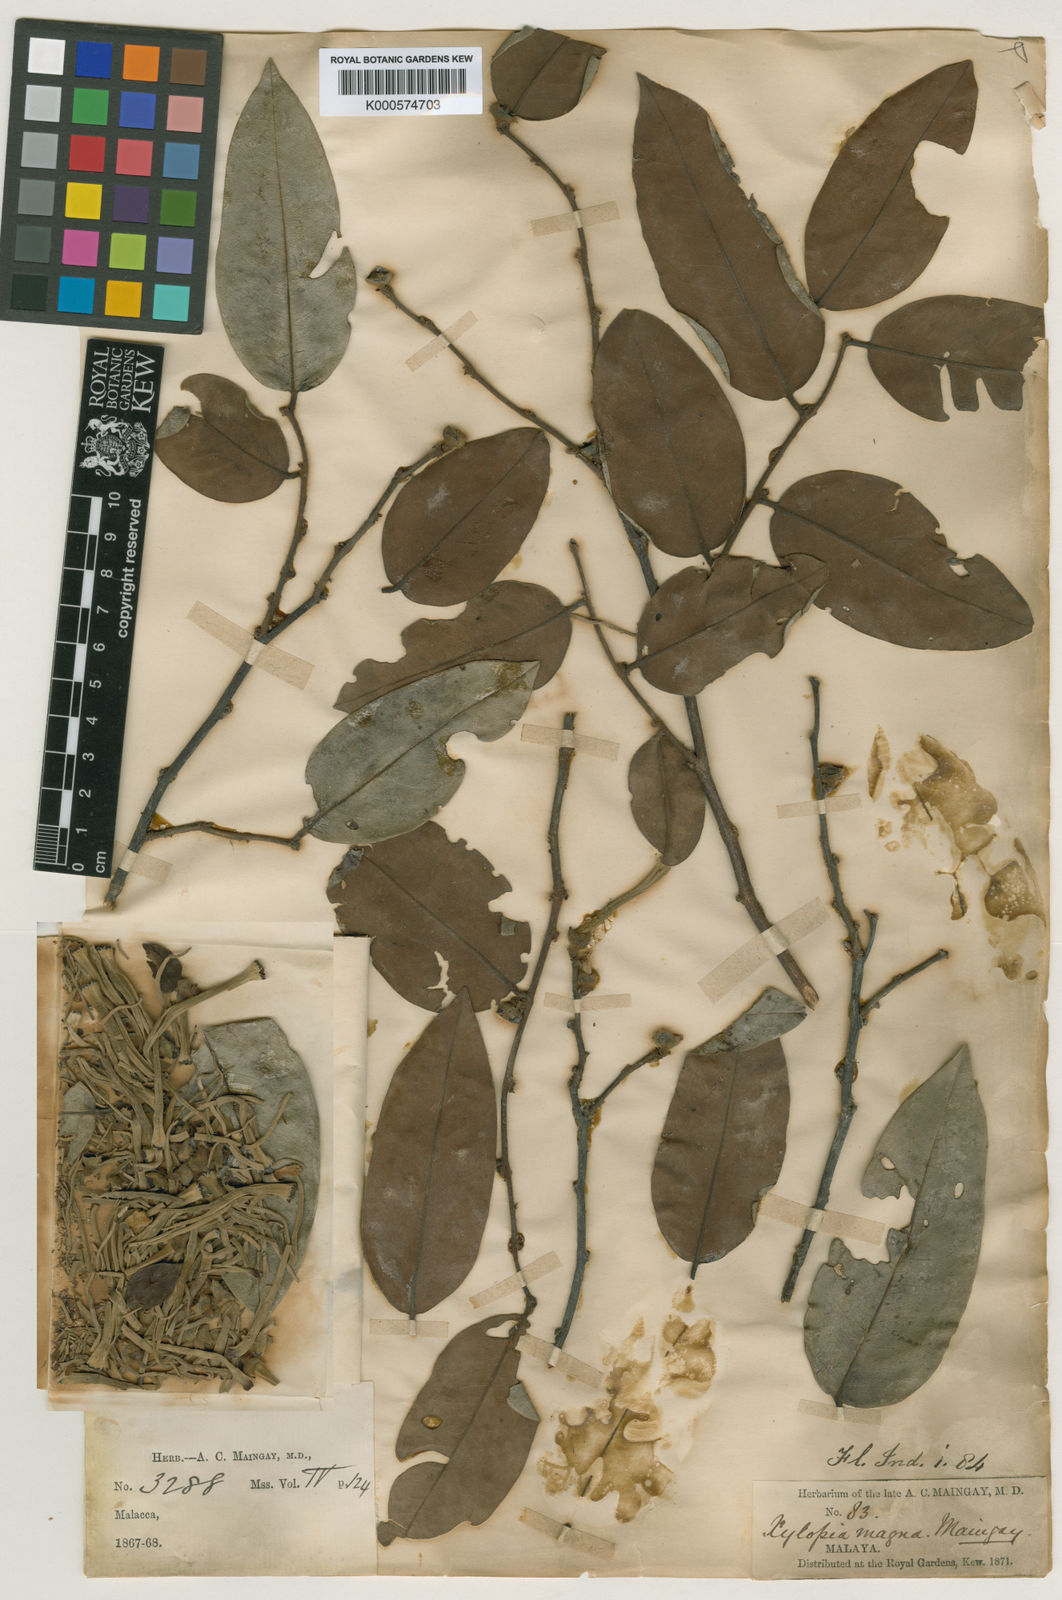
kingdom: Plantae
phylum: Tracheophyta
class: Magnoliopsida
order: Magnoliales
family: Annonaceae
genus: Xylopia
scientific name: Xylopia magna
